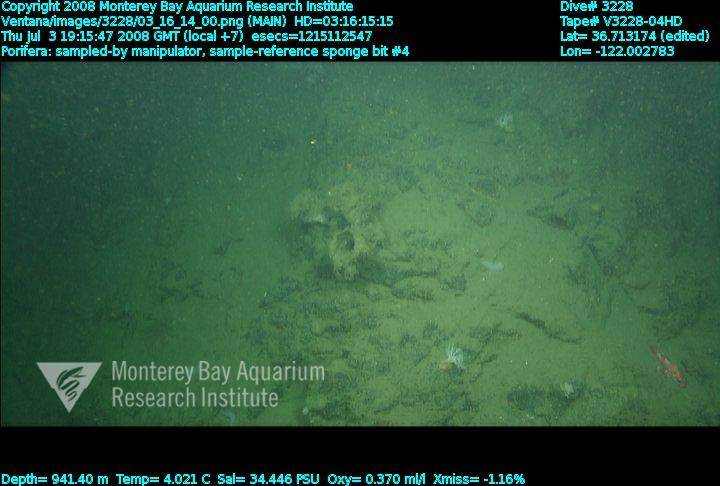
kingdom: Animalia
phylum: Porifera
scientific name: Porifera
